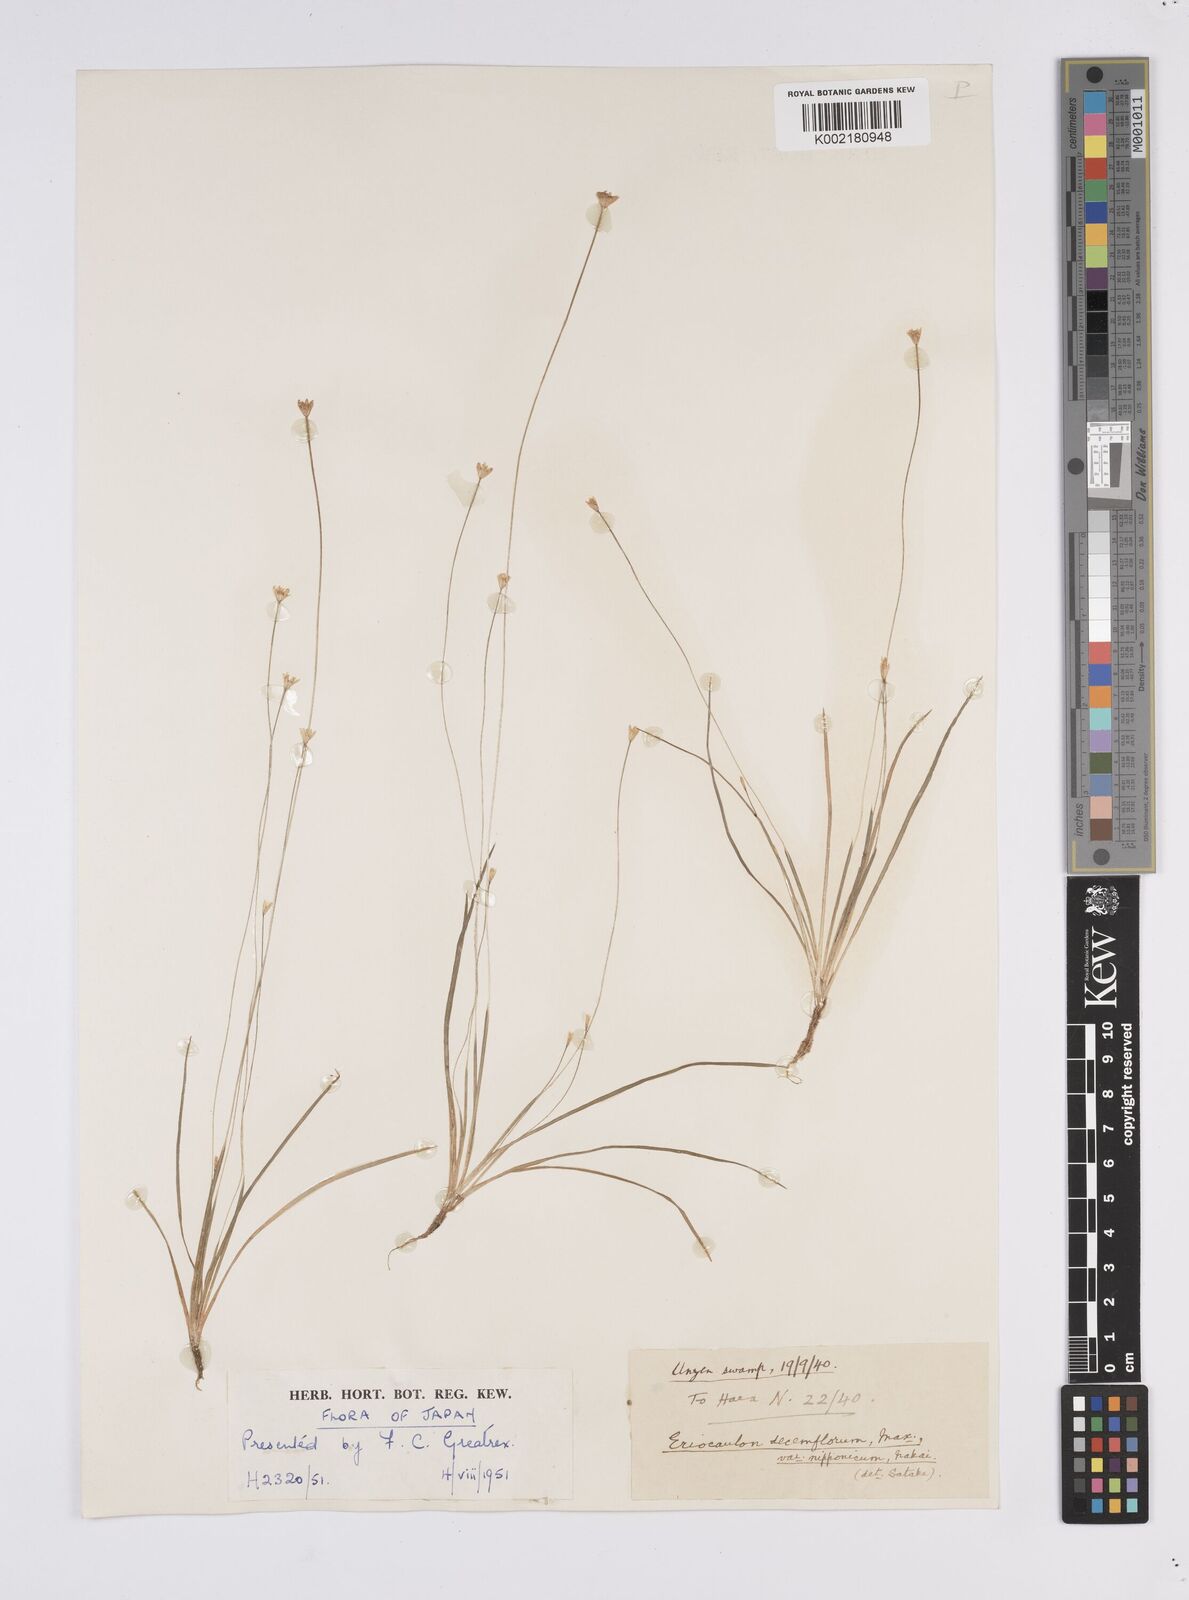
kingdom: Plantae
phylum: Tracheophyta
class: Liliopsida
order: Poales
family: Eriocaulaceae
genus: Eriocaulon
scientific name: Eriocaulon decemflorum
